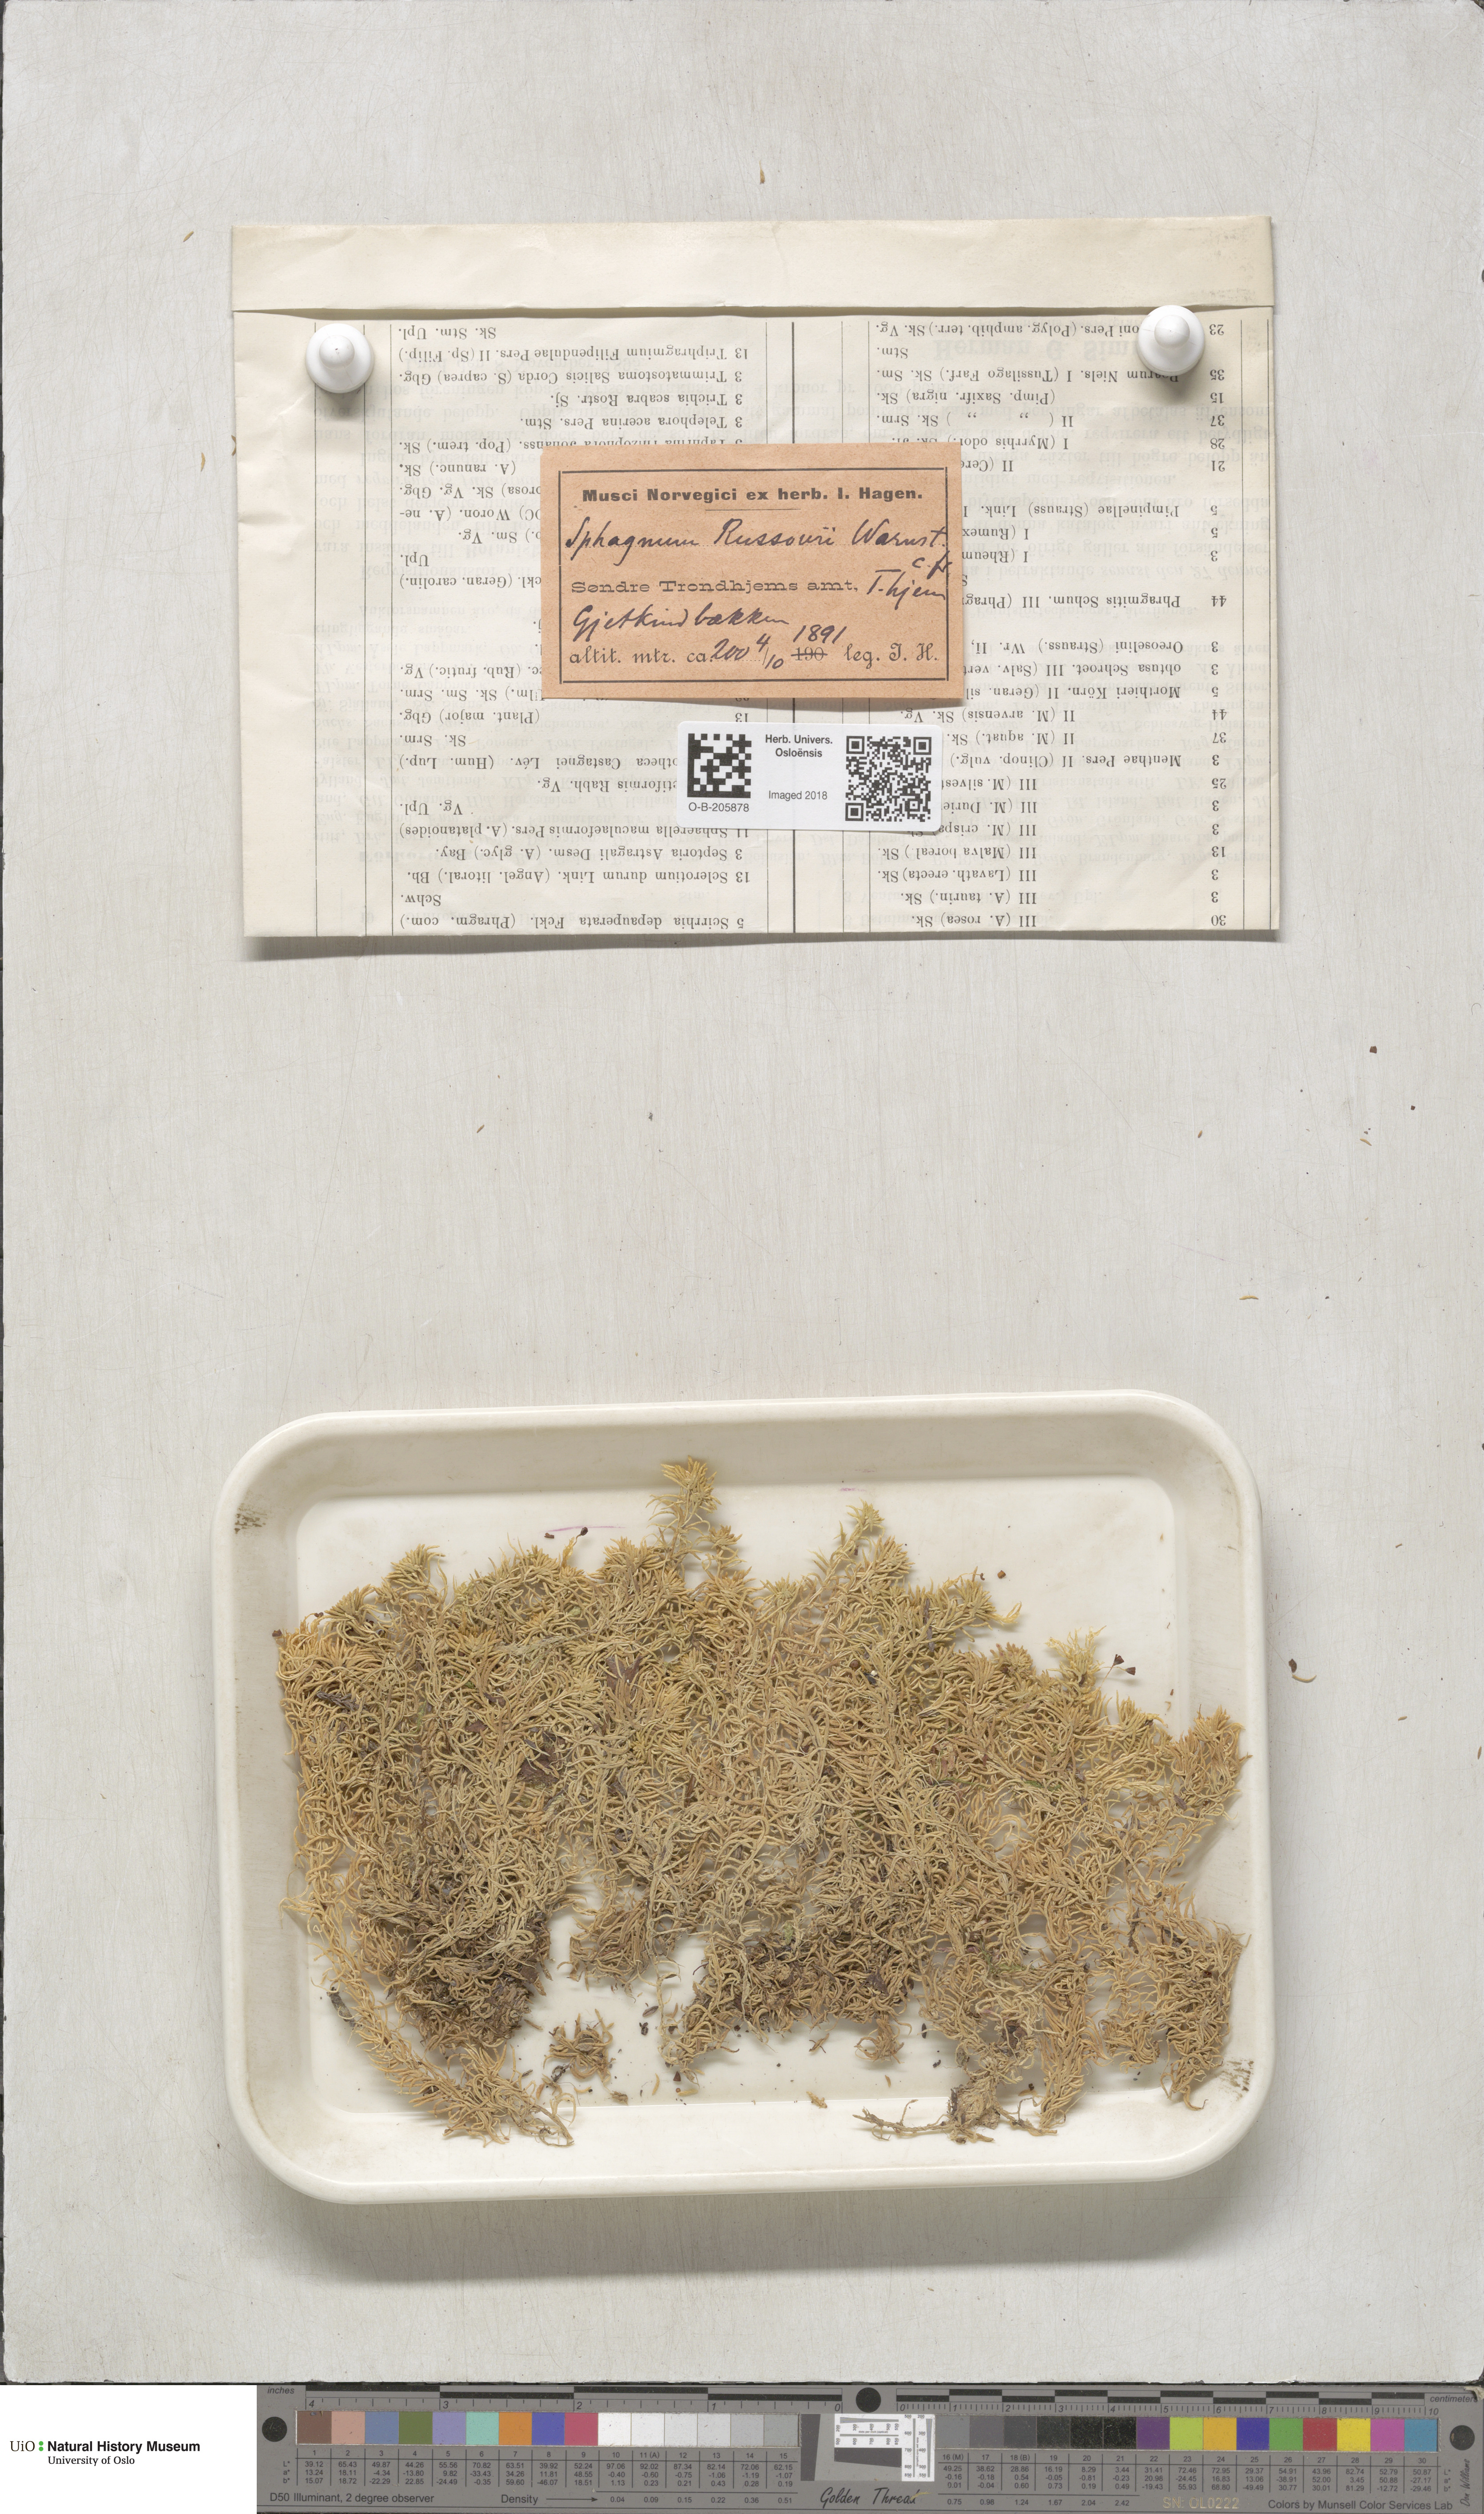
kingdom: Plantae
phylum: Bryophyta
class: Sphagnopsida
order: Sphagnales
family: Sphagnaceae
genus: Sphagnum
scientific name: Sphagnum russowii
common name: Russow's peat moss
